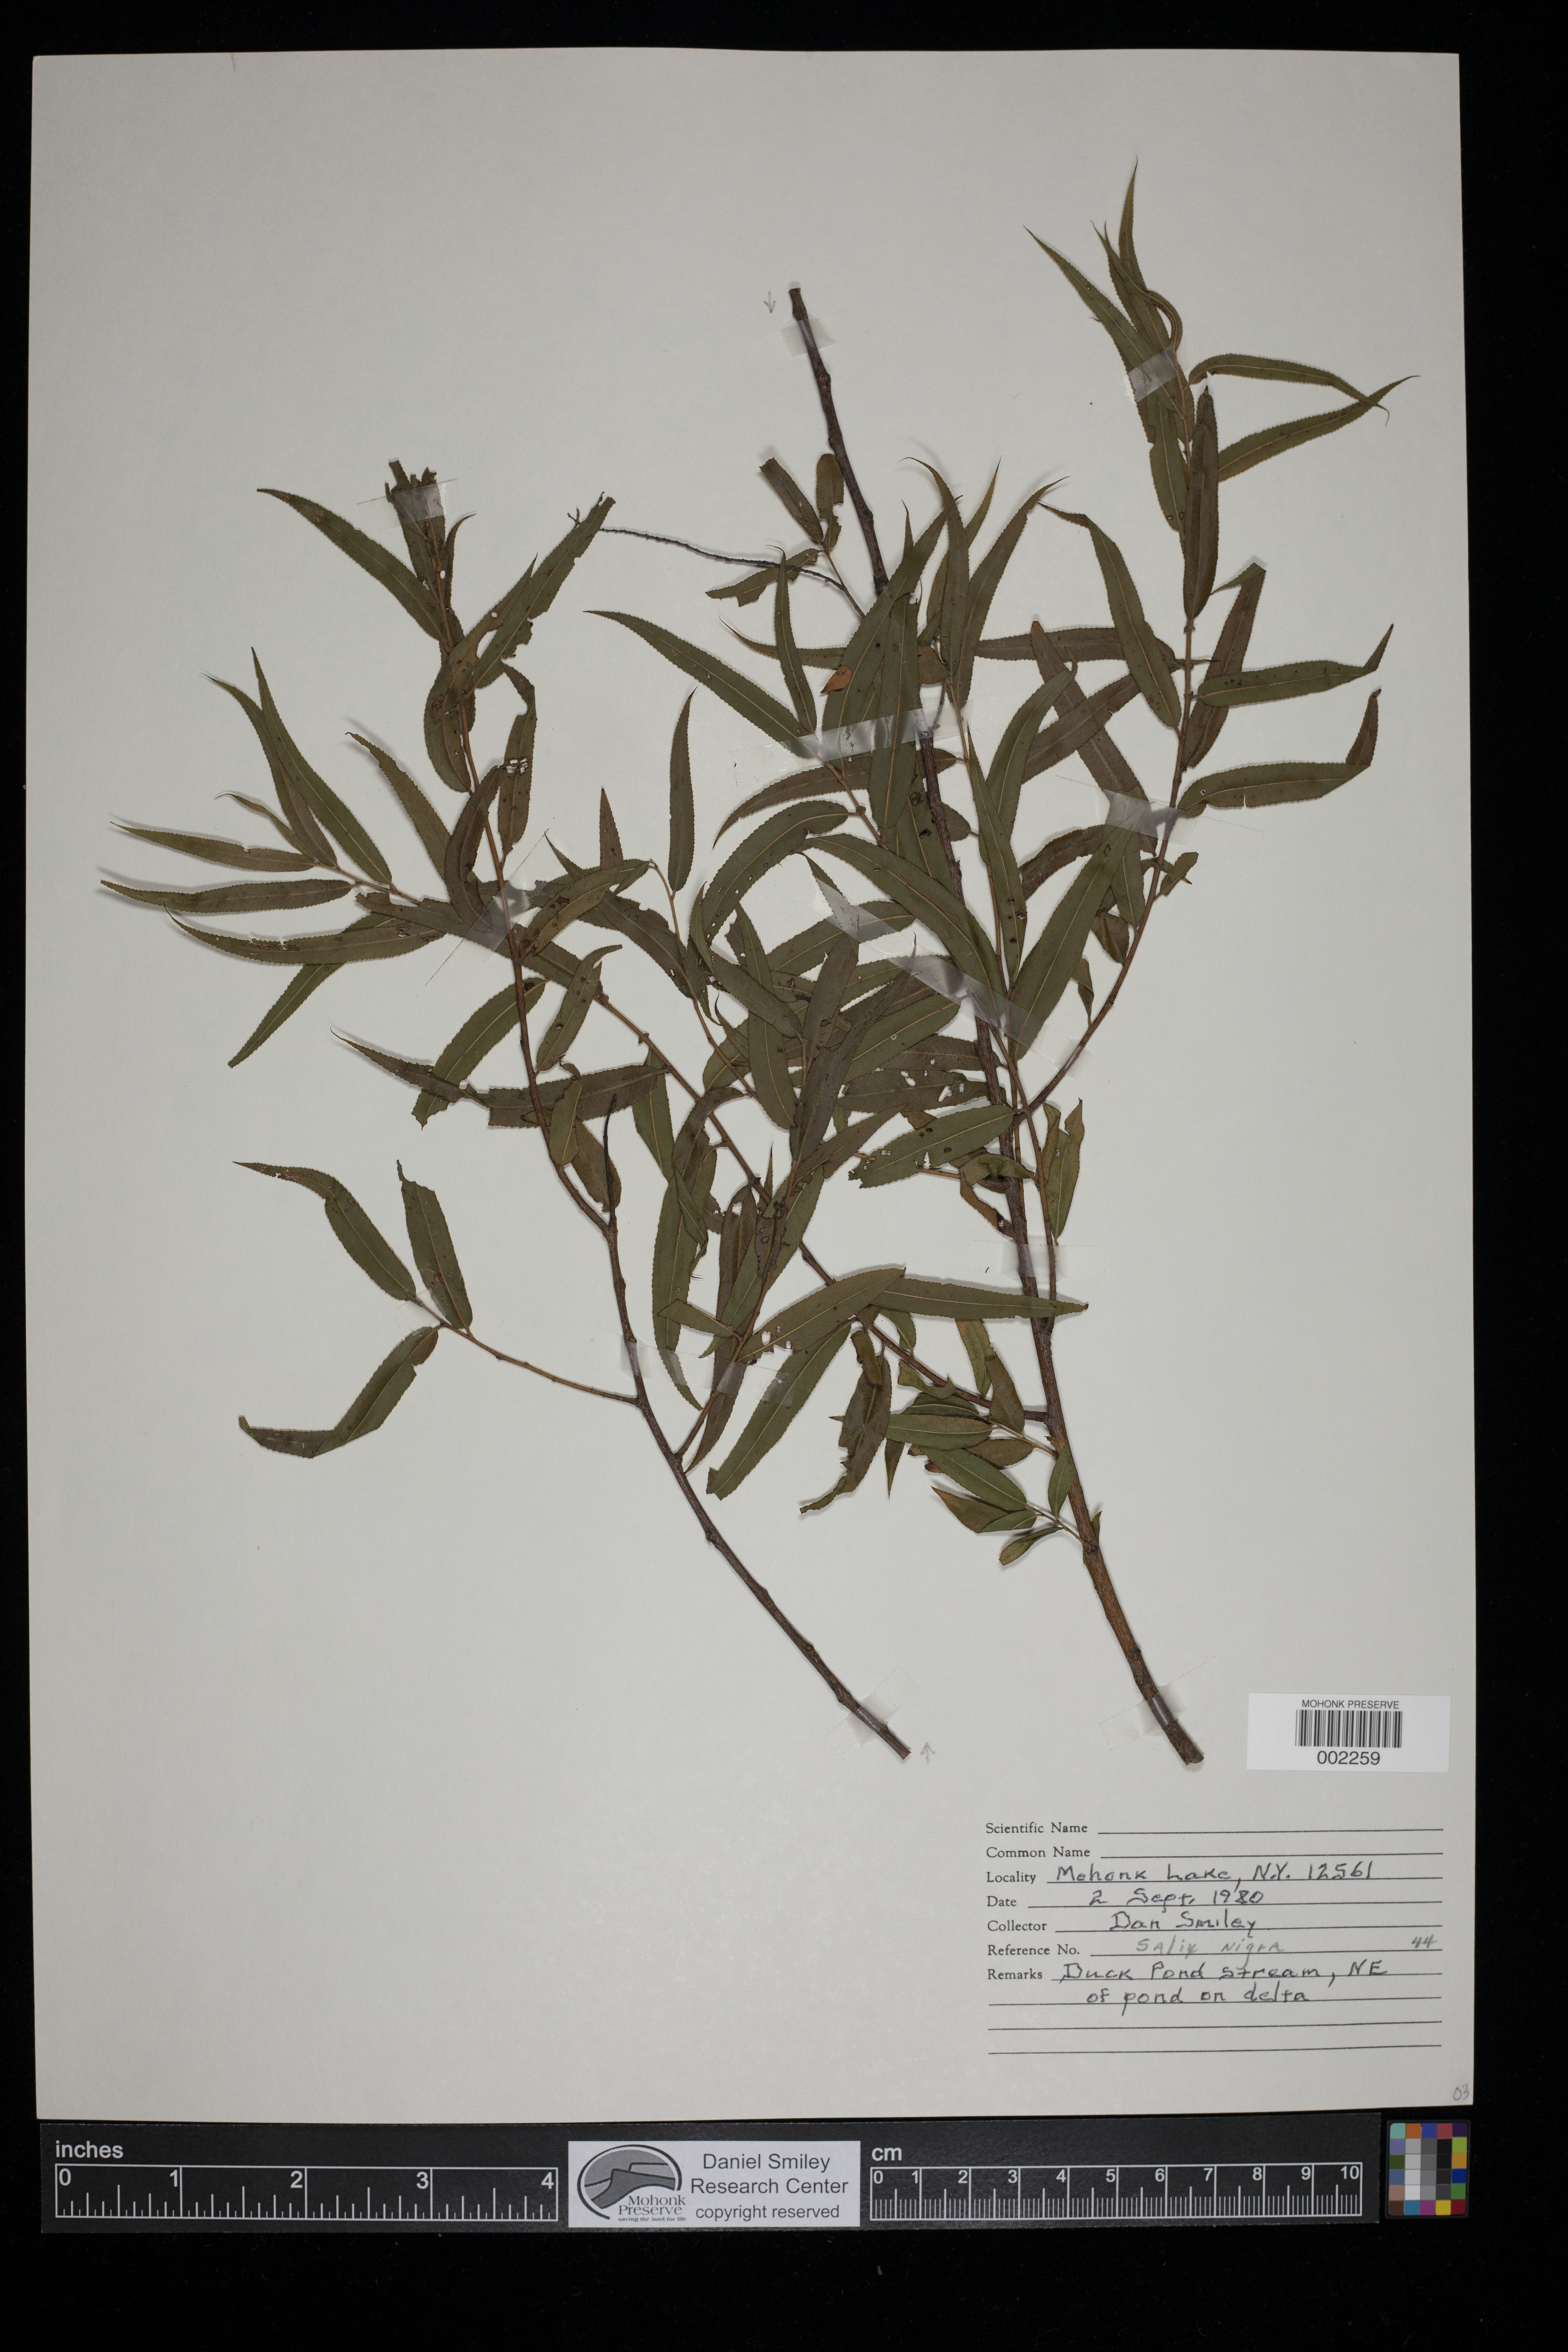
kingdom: Plantae
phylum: Tracheophyta
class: Magnoliopsida
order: Malpighiales
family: Salicaceae
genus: Salix
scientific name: Salix nigra
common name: Black willow
